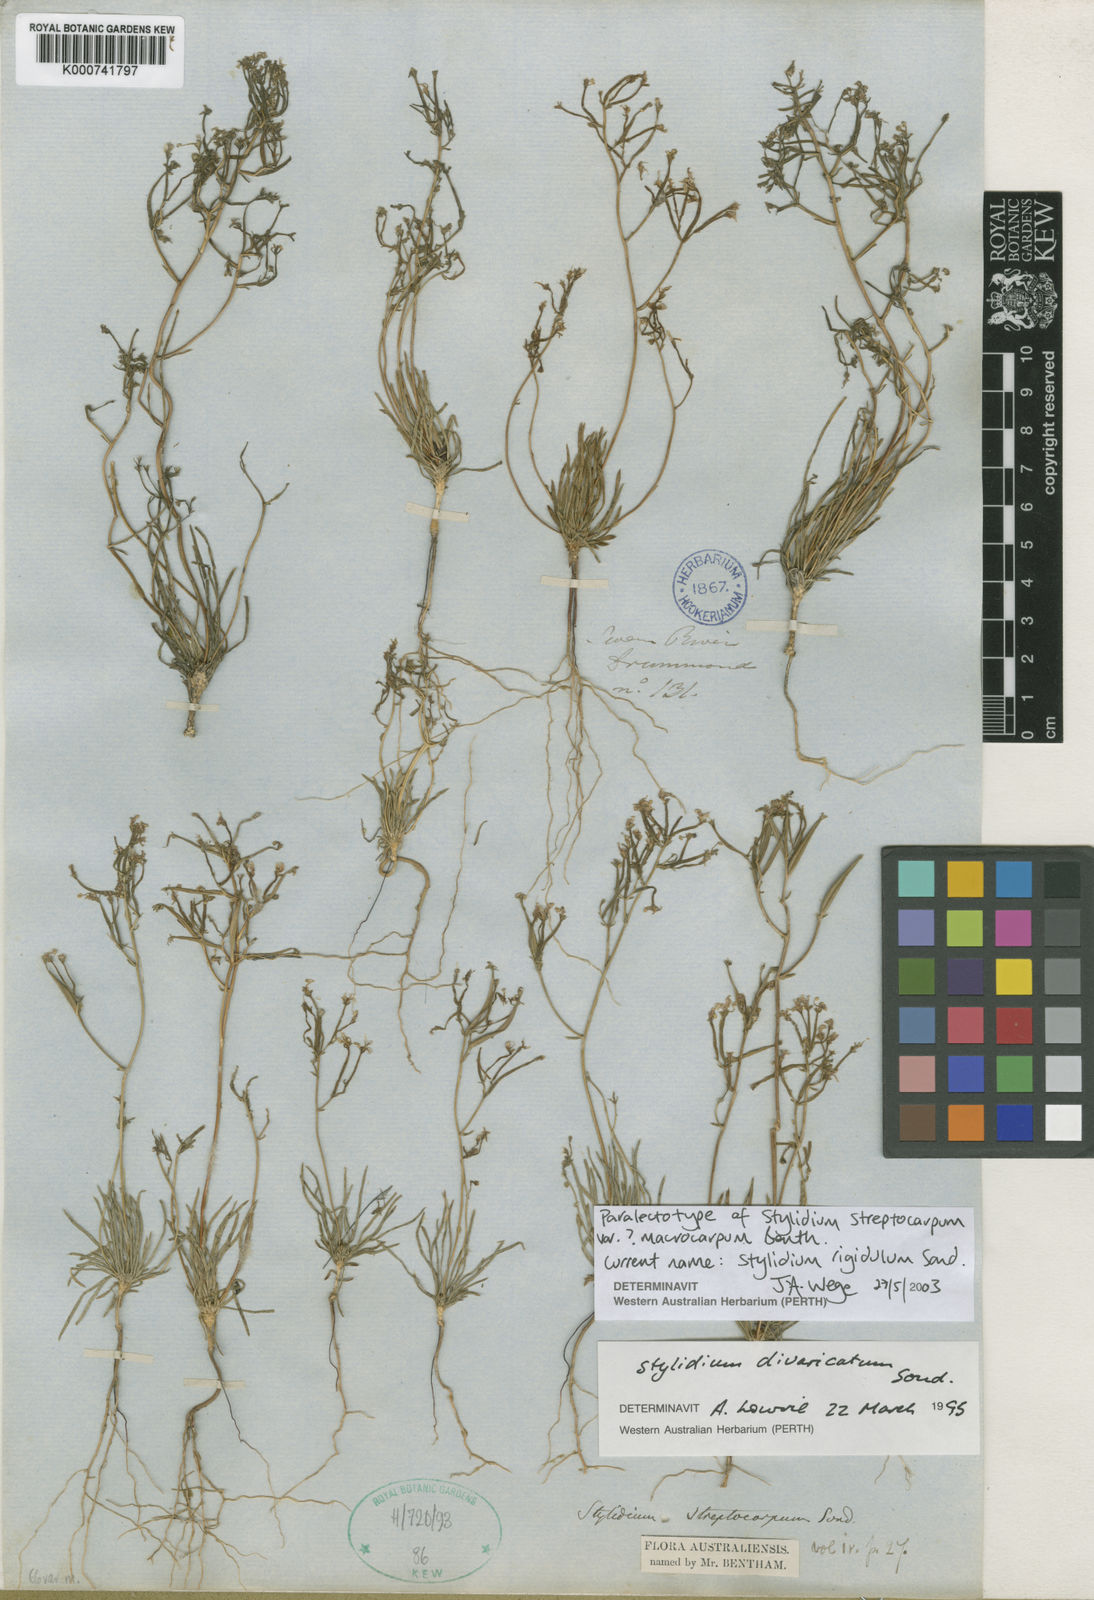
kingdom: Plantae
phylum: Tracheophyta
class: Magnoliopsida
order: Asterales
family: Stylidiaceae
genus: Stylidium
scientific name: Stylidium rigidulum
